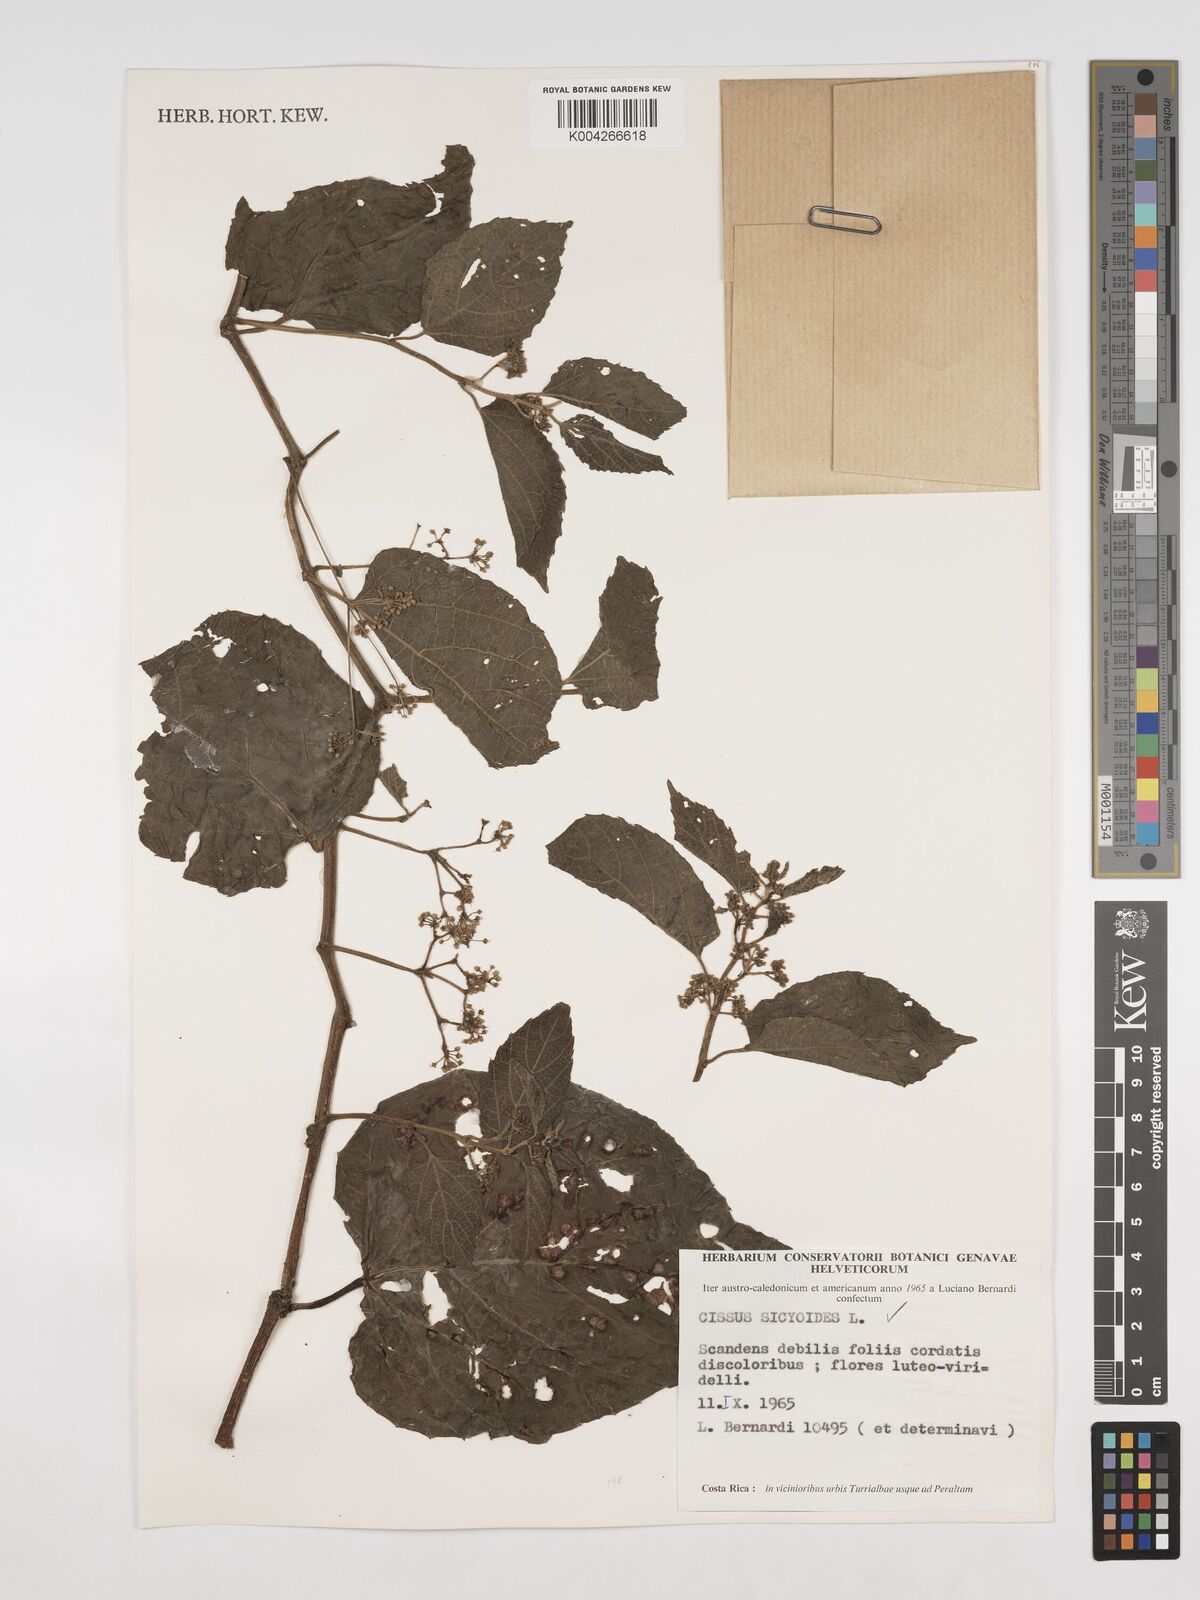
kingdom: Plantae
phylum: Tracheophyta
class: Magnoliopsida
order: Vitales
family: Vitaceae
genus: Cissus
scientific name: Cissus
